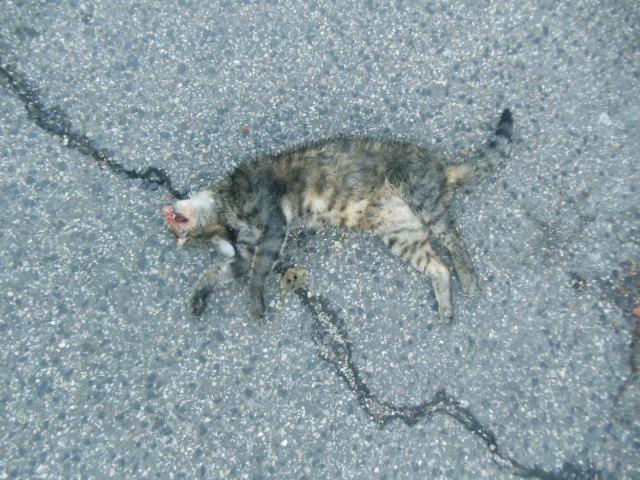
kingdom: Animalia
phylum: Chordata
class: Mammalia
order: Carnivora
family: Felidae
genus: Felis
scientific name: Felis catus
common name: Domestic cat
